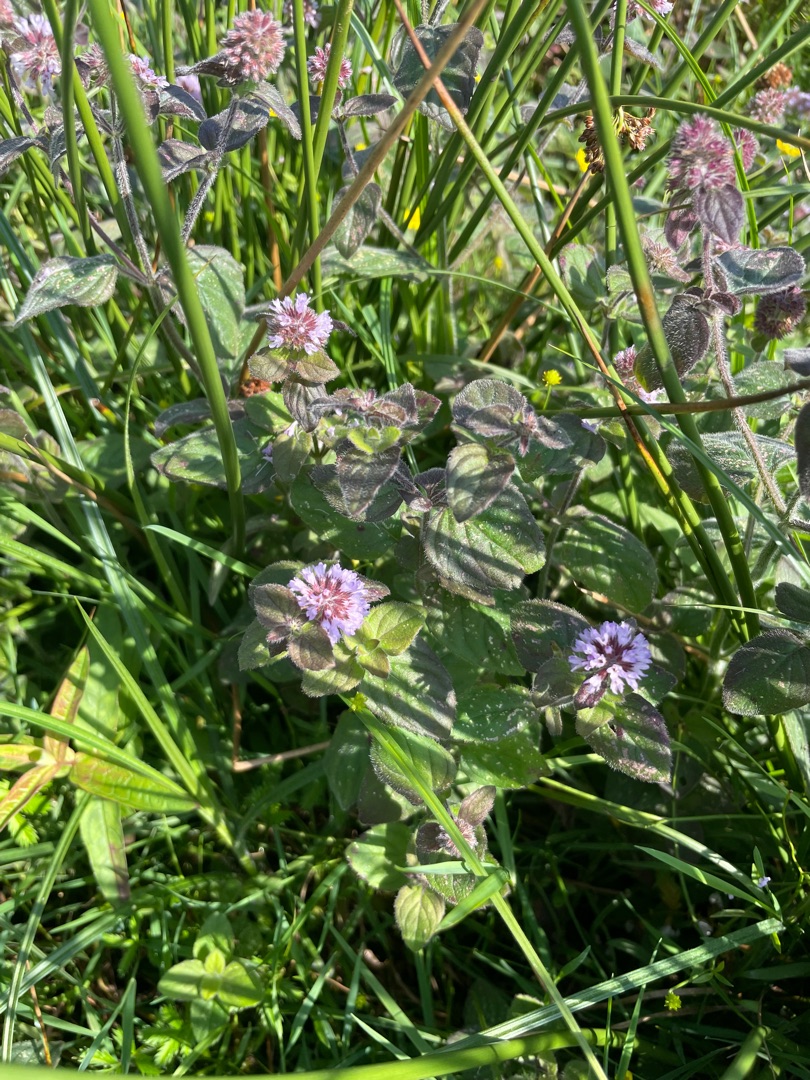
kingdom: Plantae
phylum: Tracheophyta
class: Magnoliopsida
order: Lamiales
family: Lamiaceae
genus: Mentha
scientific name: Mentha aquatica
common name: Vand-mynte
